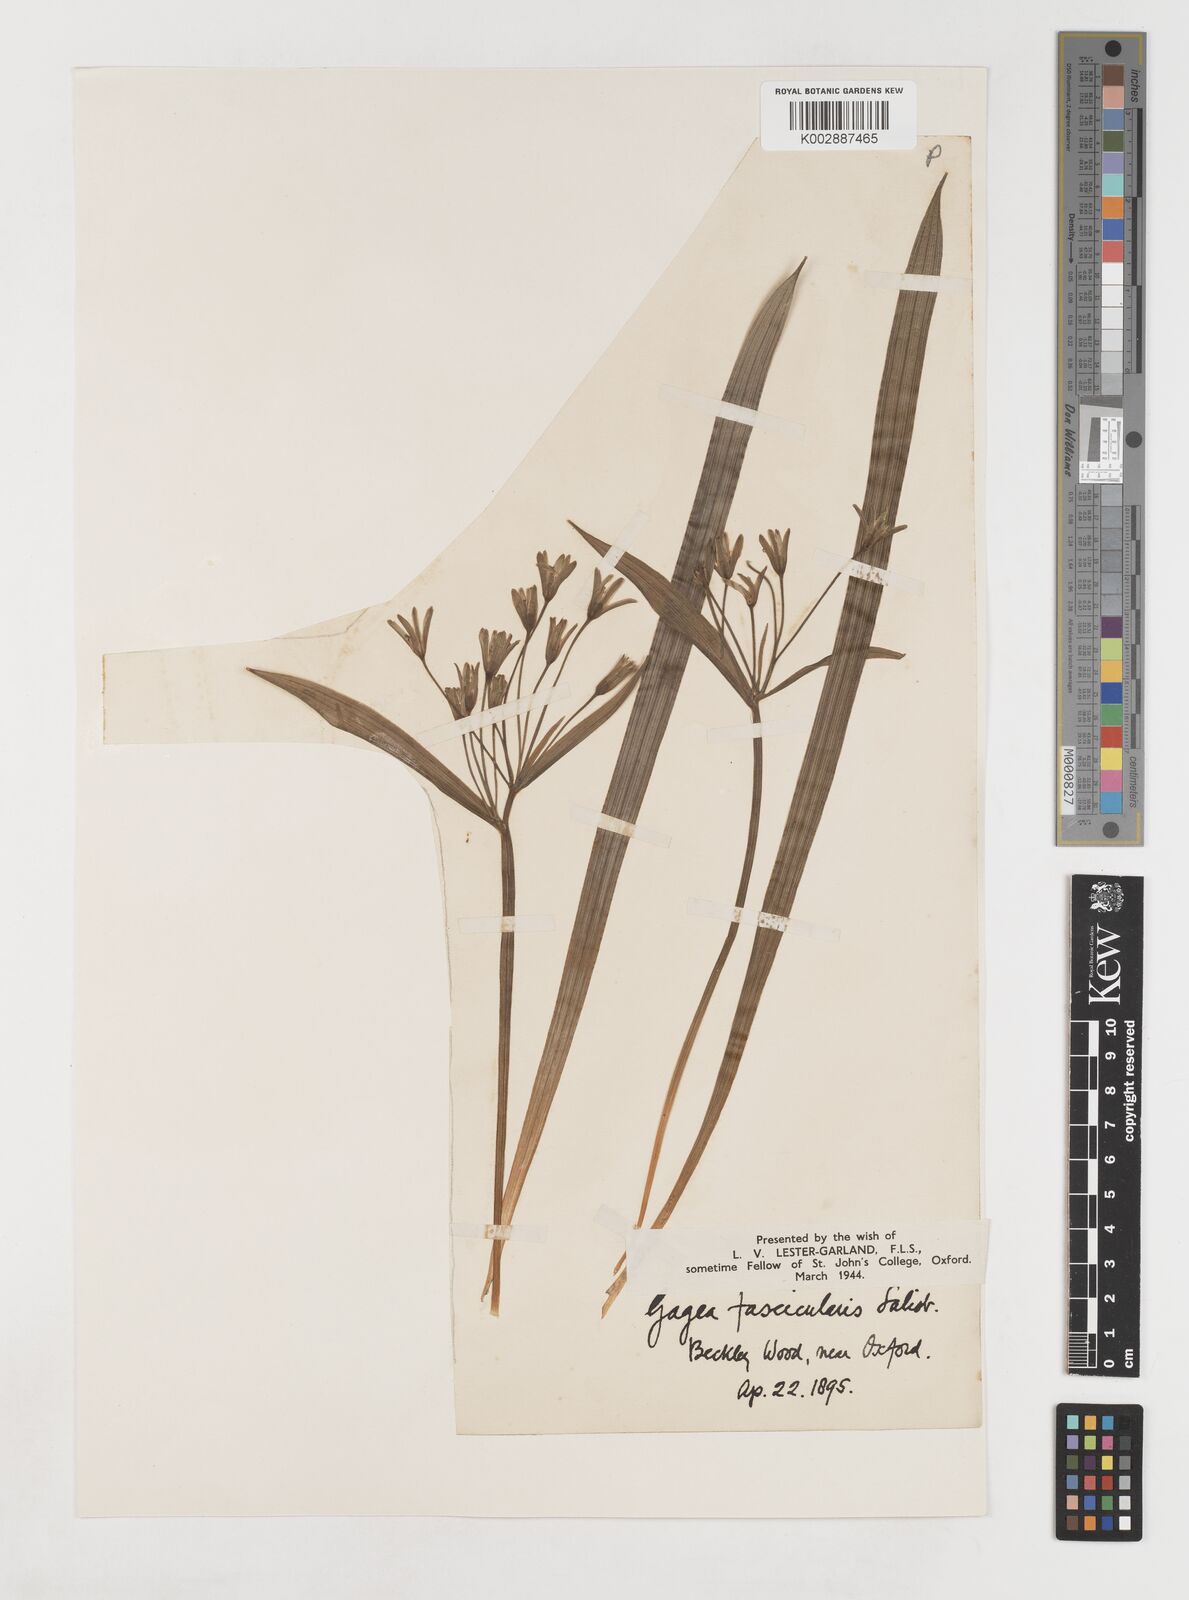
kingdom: Plantae
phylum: Tracheophyta
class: Liliopsida
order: Liliales
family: Liliaceae
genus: Gagea
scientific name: Gagea lutea
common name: Yellow star-of-bethlehem
